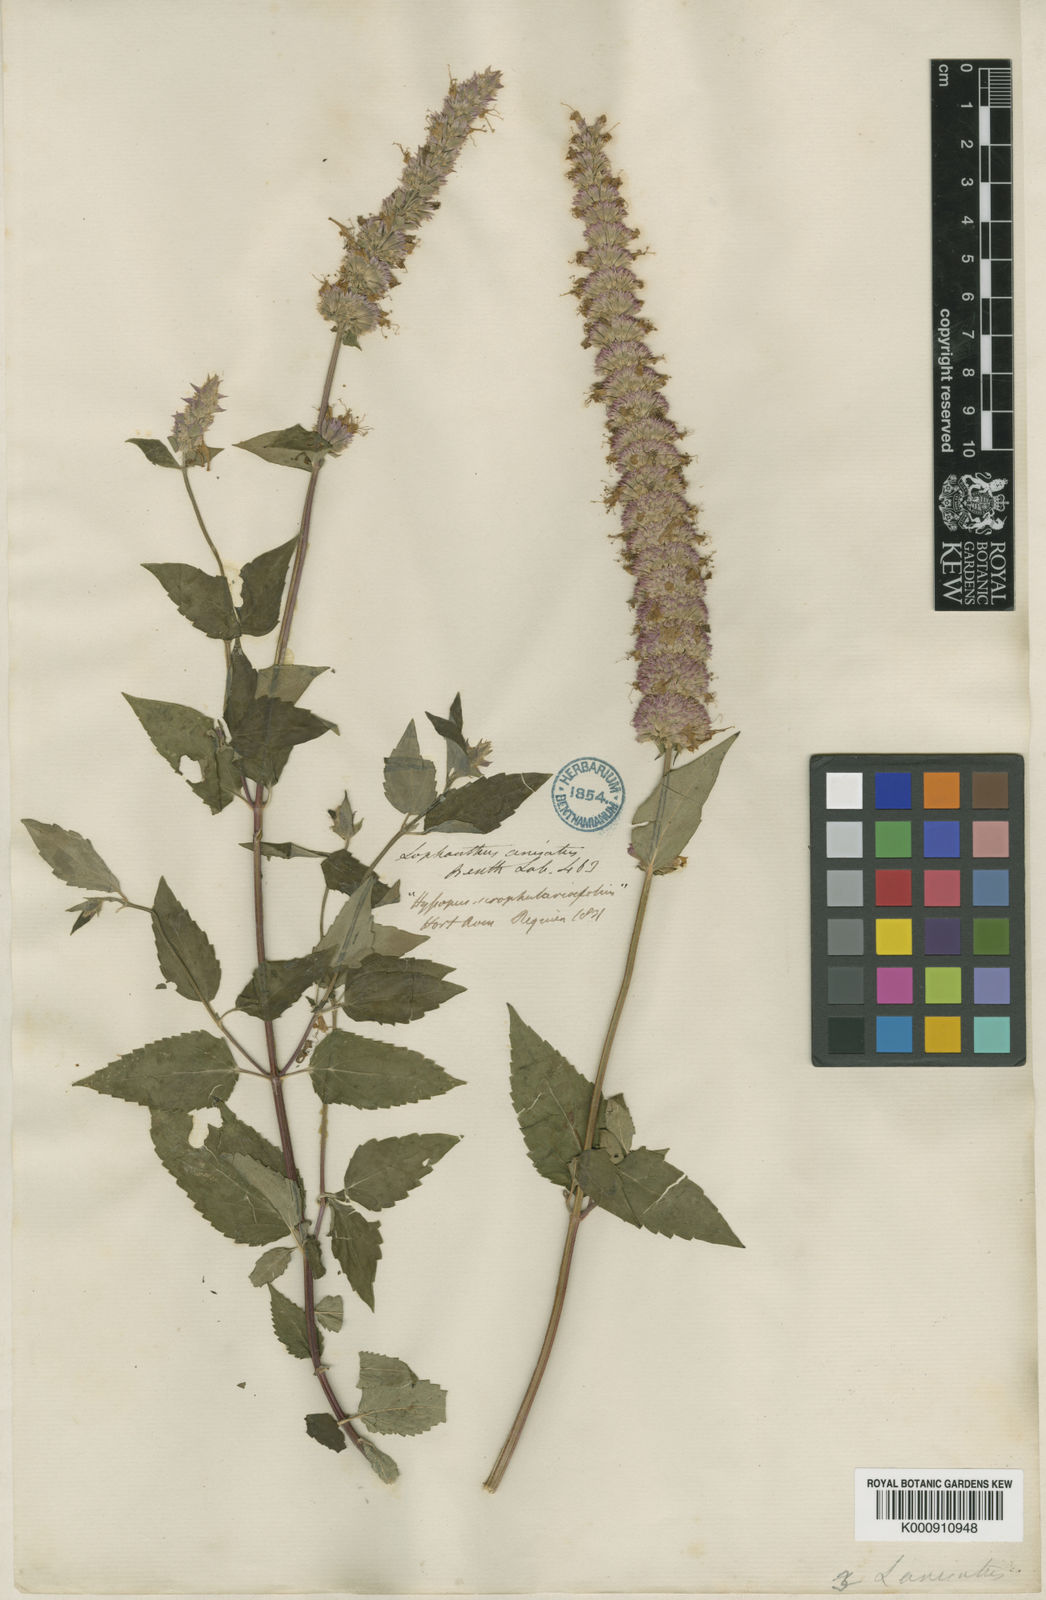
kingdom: Plantae
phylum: Tracheophyta
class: Magnoliopsida
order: Lamiales
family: Lamiaceae
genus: Agastache
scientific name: Agastache foeniculum
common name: Anise hyssop
